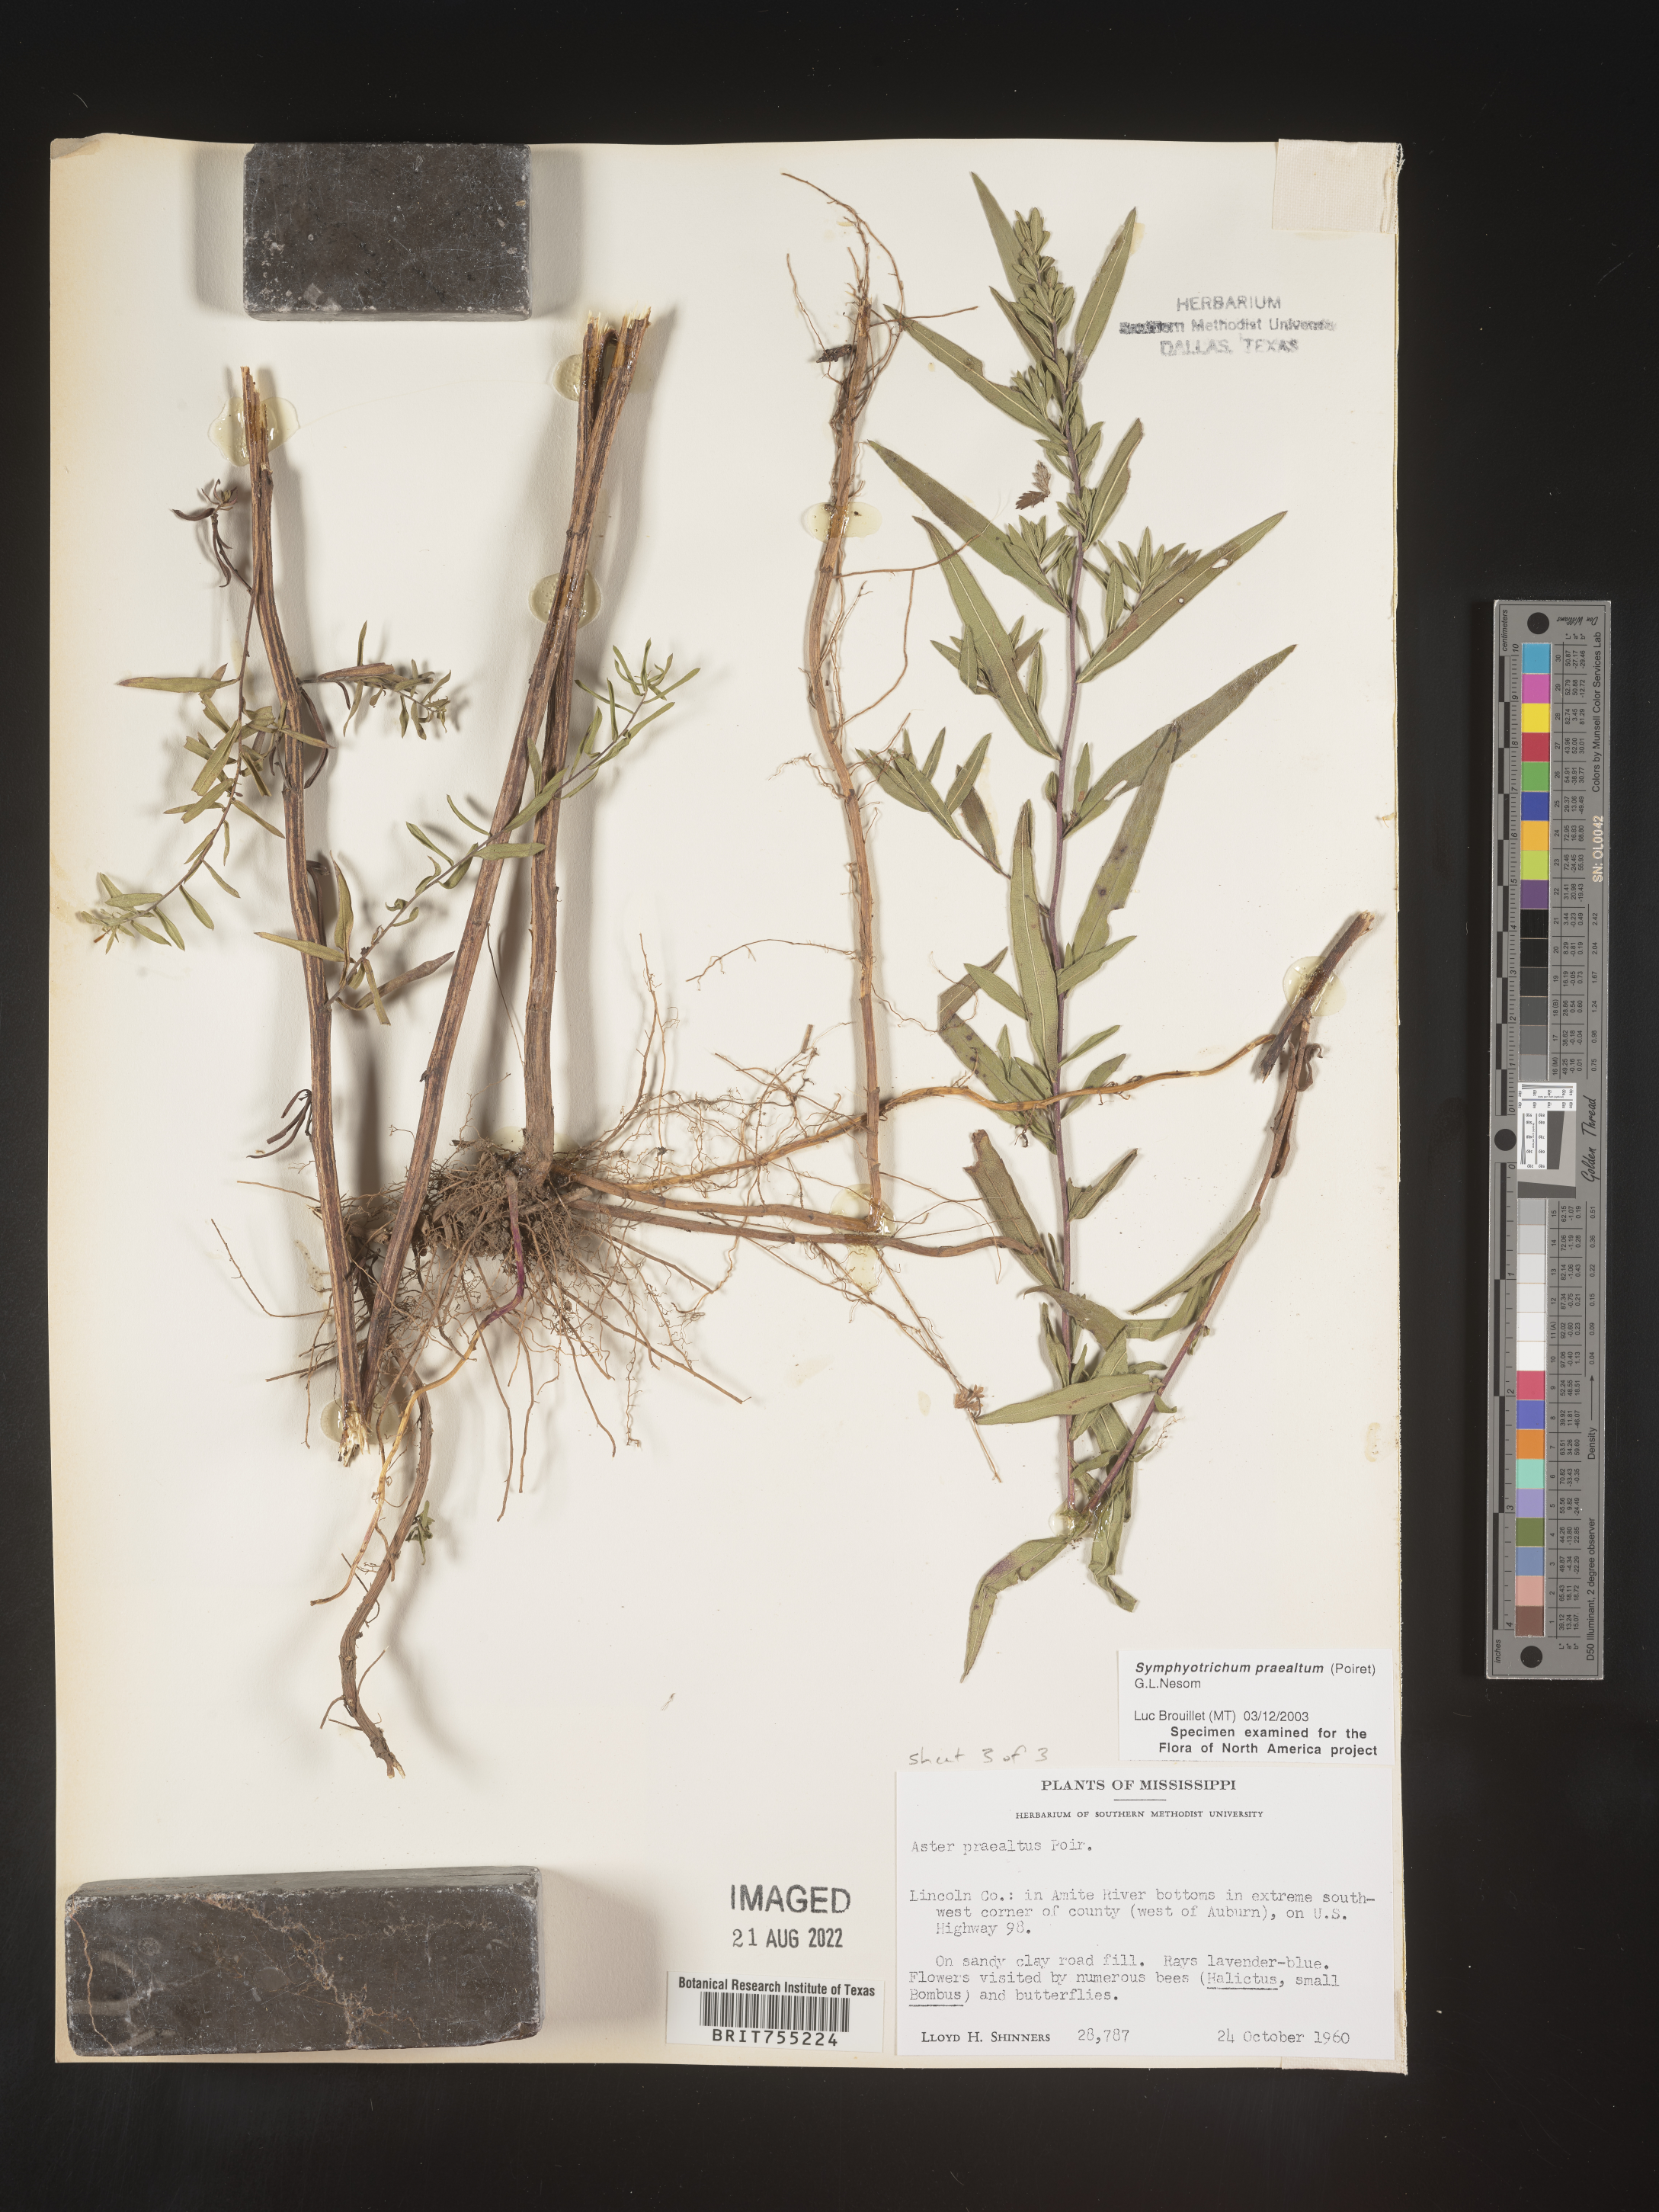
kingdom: Plantae
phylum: Tracheophyta
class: Magnoliopsida
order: Asterales
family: Asteraceae
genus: Symphyotrichum
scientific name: Symphyotrichum praealtum
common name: Willow aster
